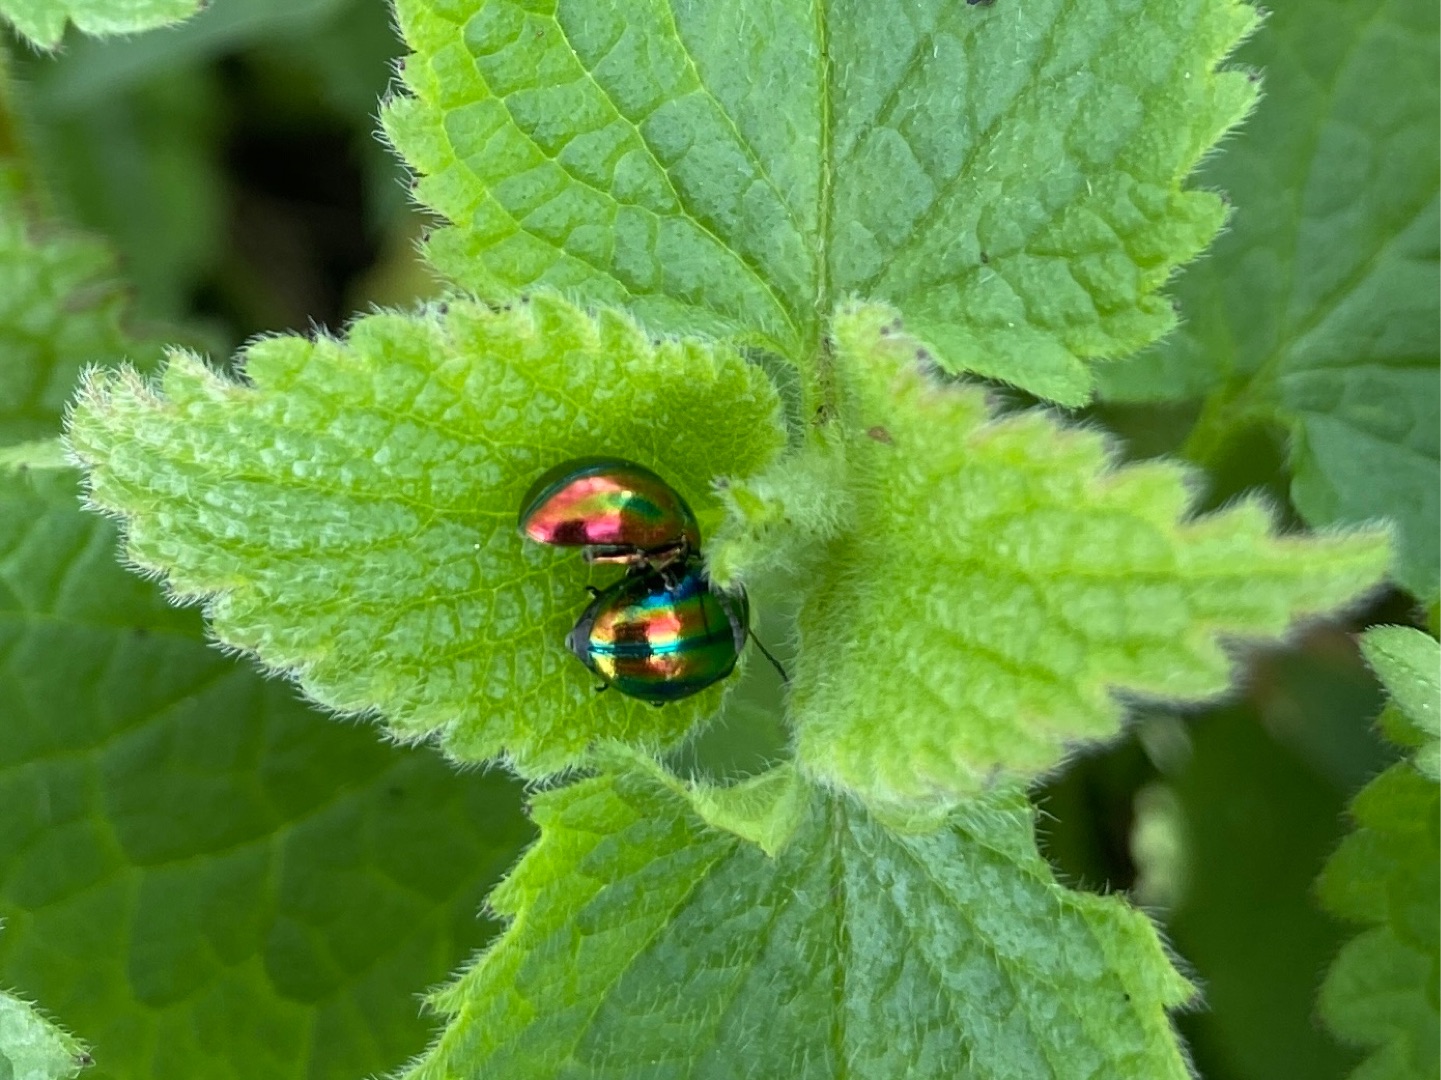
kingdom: Animalia
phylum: Arthropoda
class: Insecta
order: Coleoptera
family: Chrysomelidae
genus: Chrysolina
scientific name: Chrysolina fastuosa
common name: Tvetandbladbille
